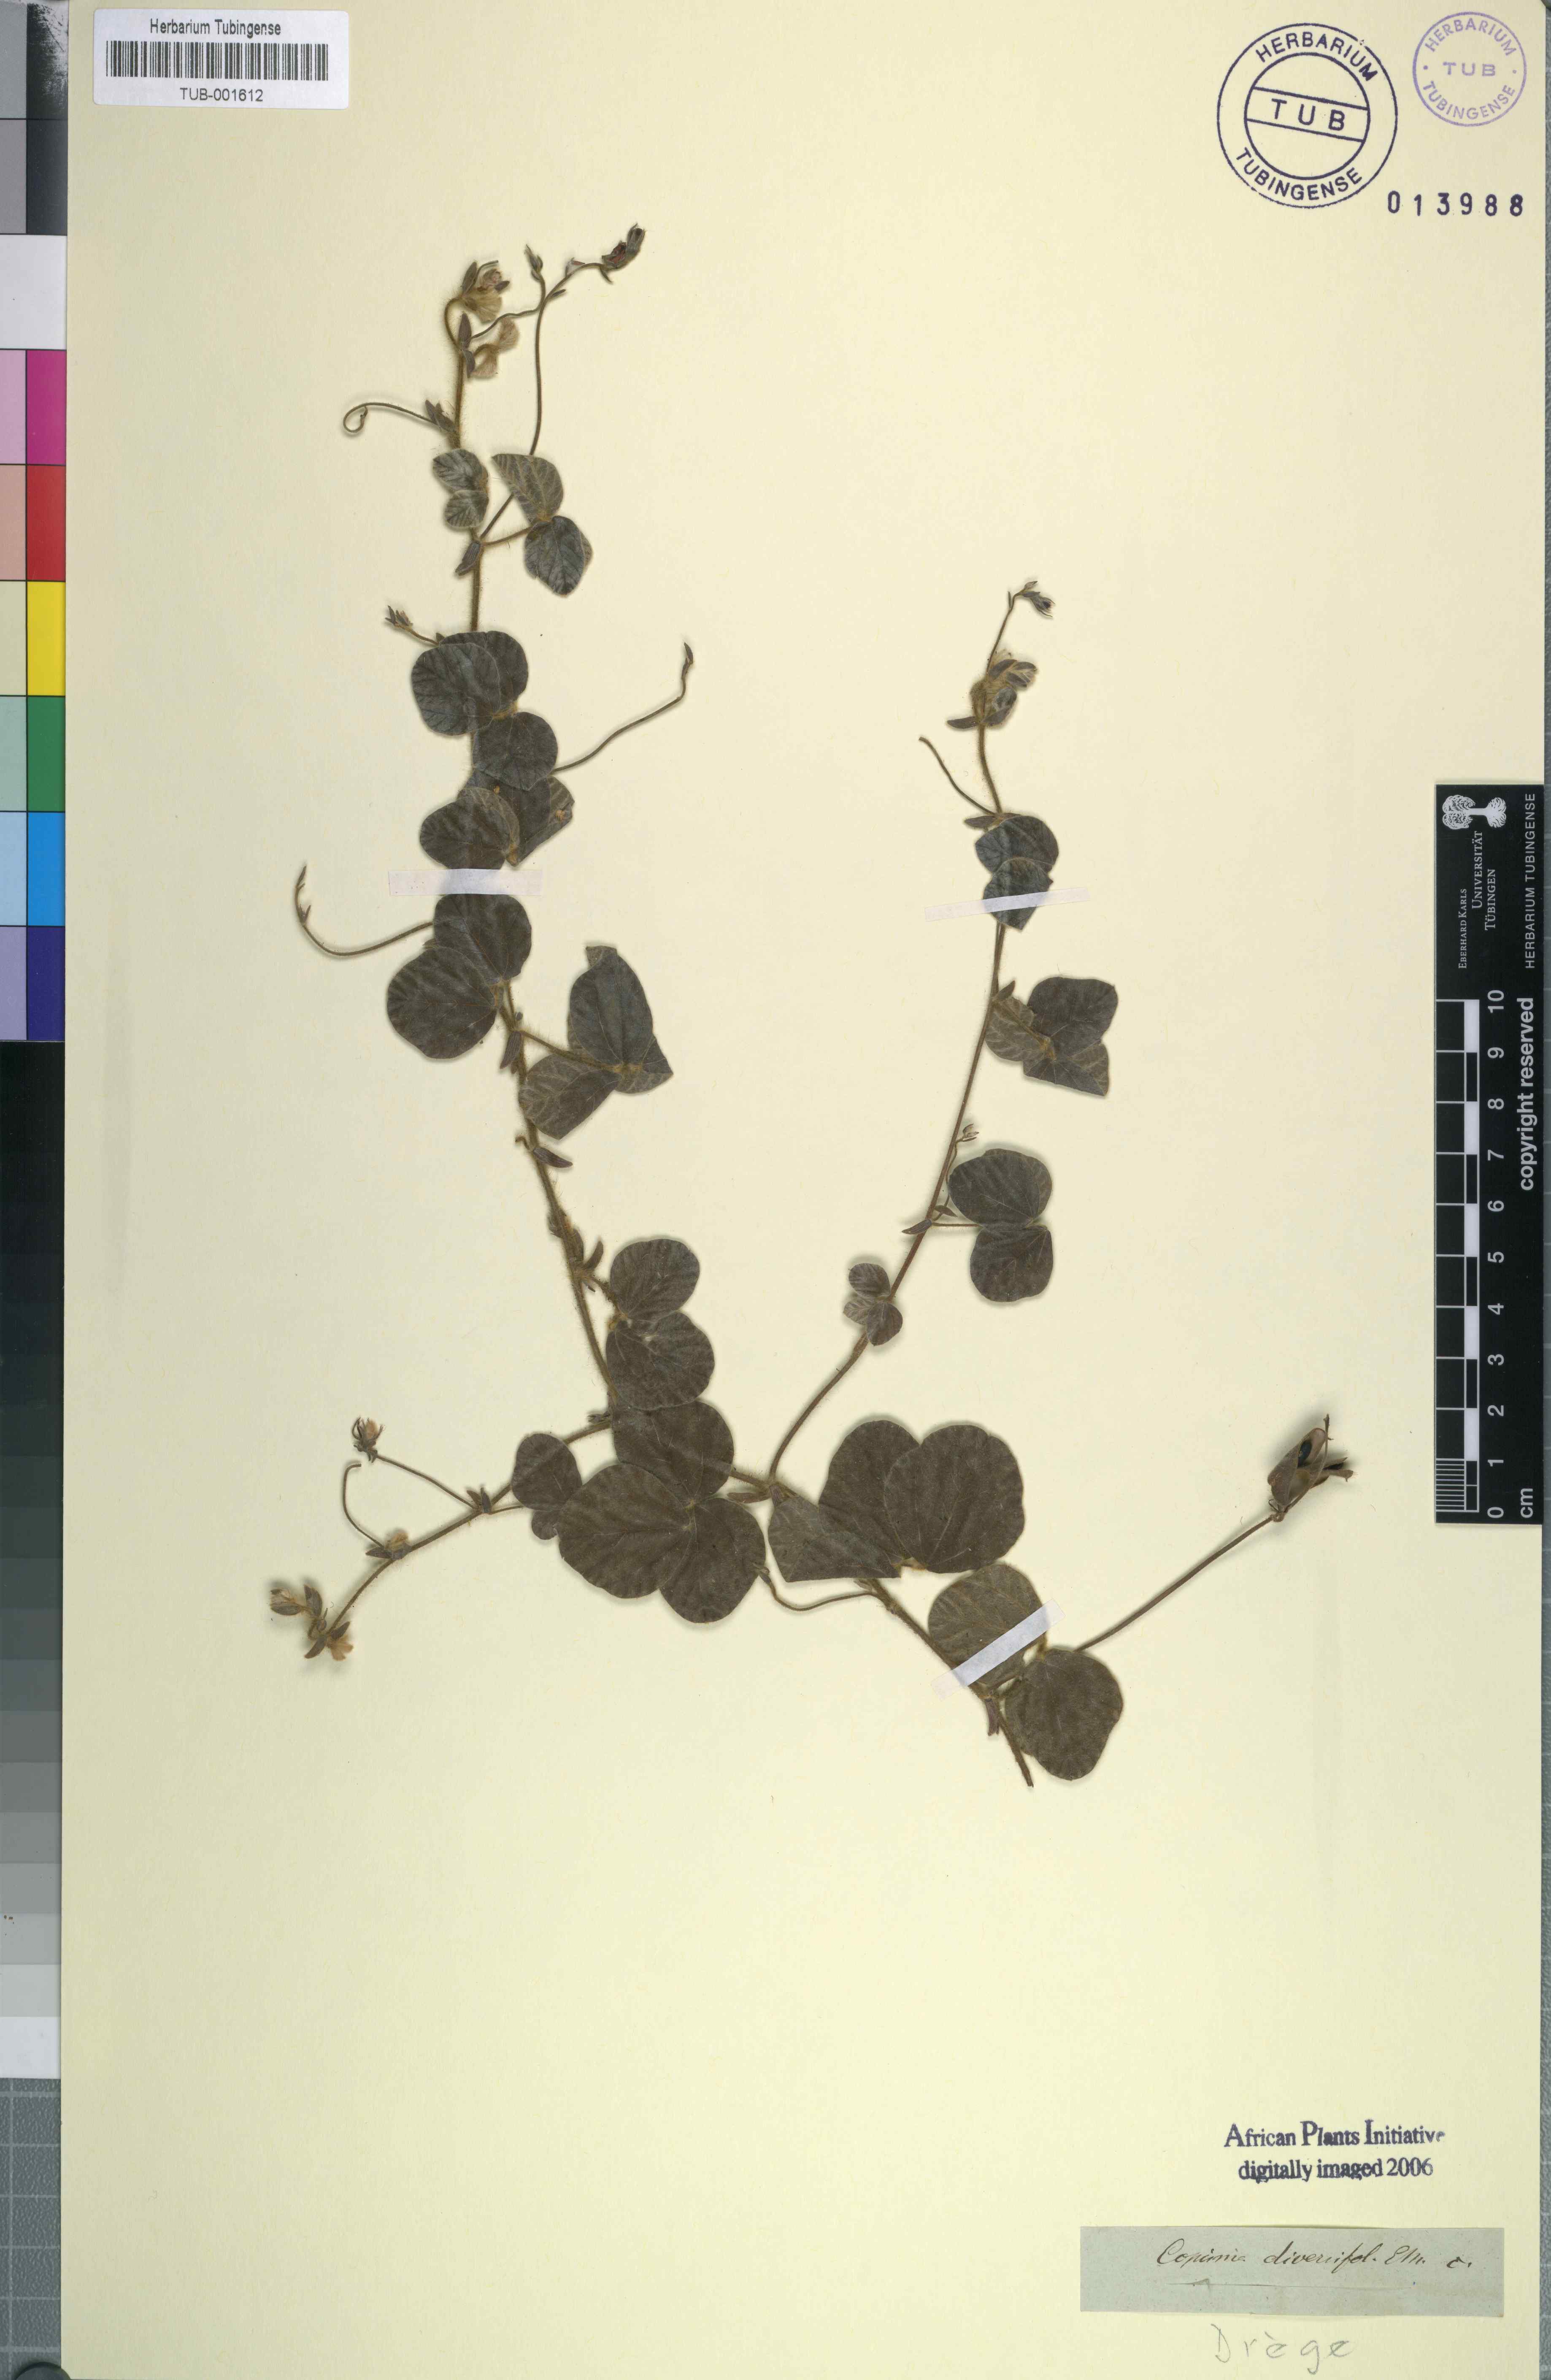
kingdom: Plantae
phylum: Tracheophyta
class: Magnoliopsida
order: Fabales
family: Fabaceae
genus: Rhynchosia
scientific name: Rhynchosia hirsuta
